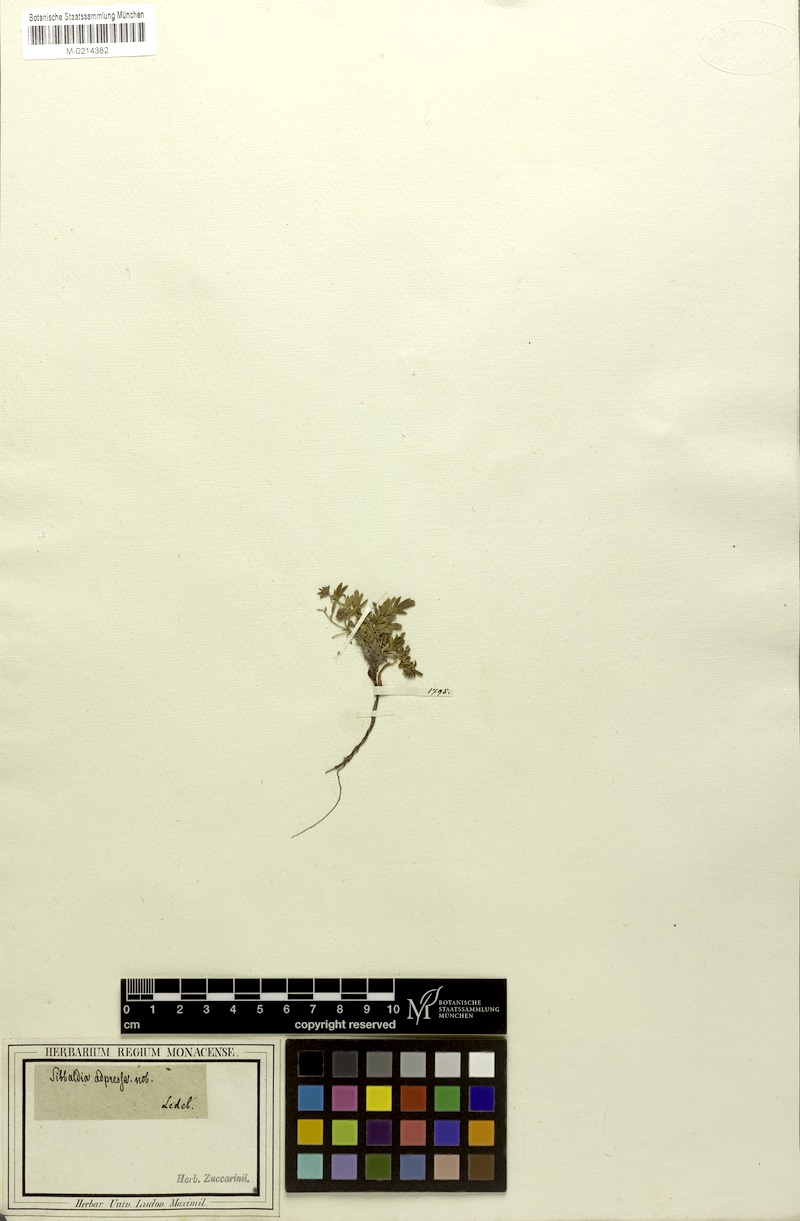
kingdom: Plantae
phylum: Tracheophyta
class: Magnoliopsida
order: Rosales
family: Rosaceae
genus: Sibbaldianthe
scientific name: Sibbaldianthe adpressa
